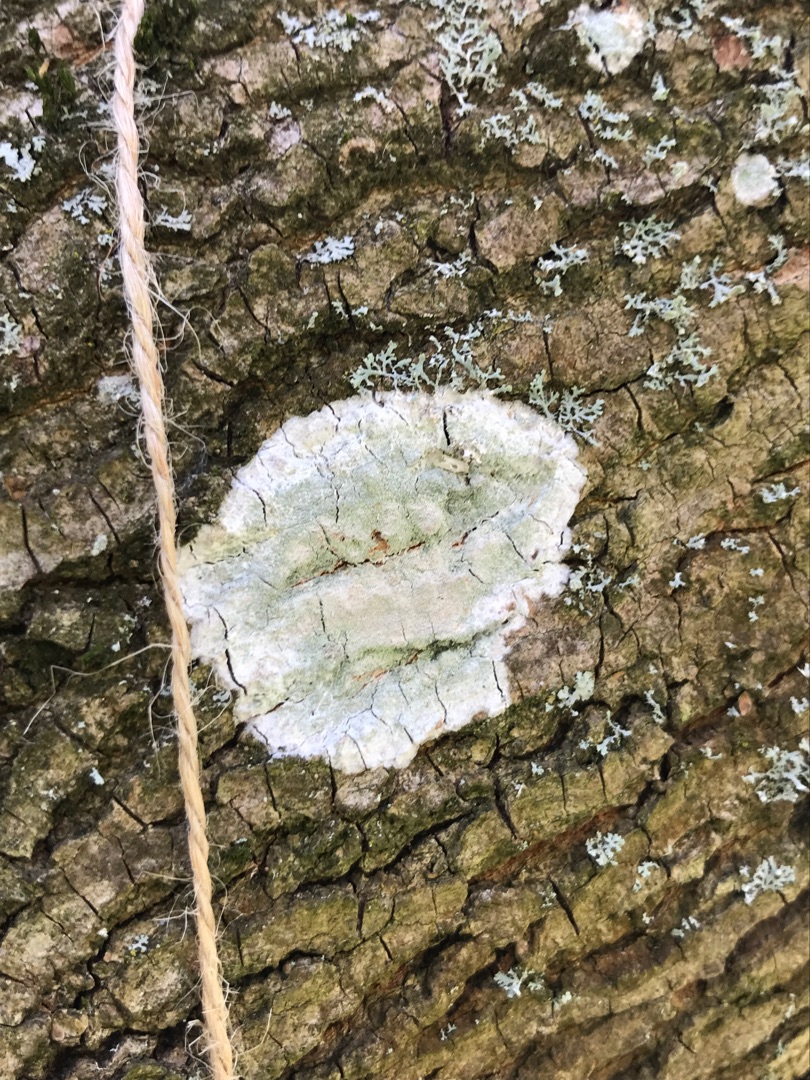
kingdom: Fungi
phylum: Ascomycota
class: Lecanoromycetes
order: Ostropales
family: Phlyctidaceae
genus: Phlyctis
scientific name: Phlyctis argena
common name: Almindelig sølvlav
